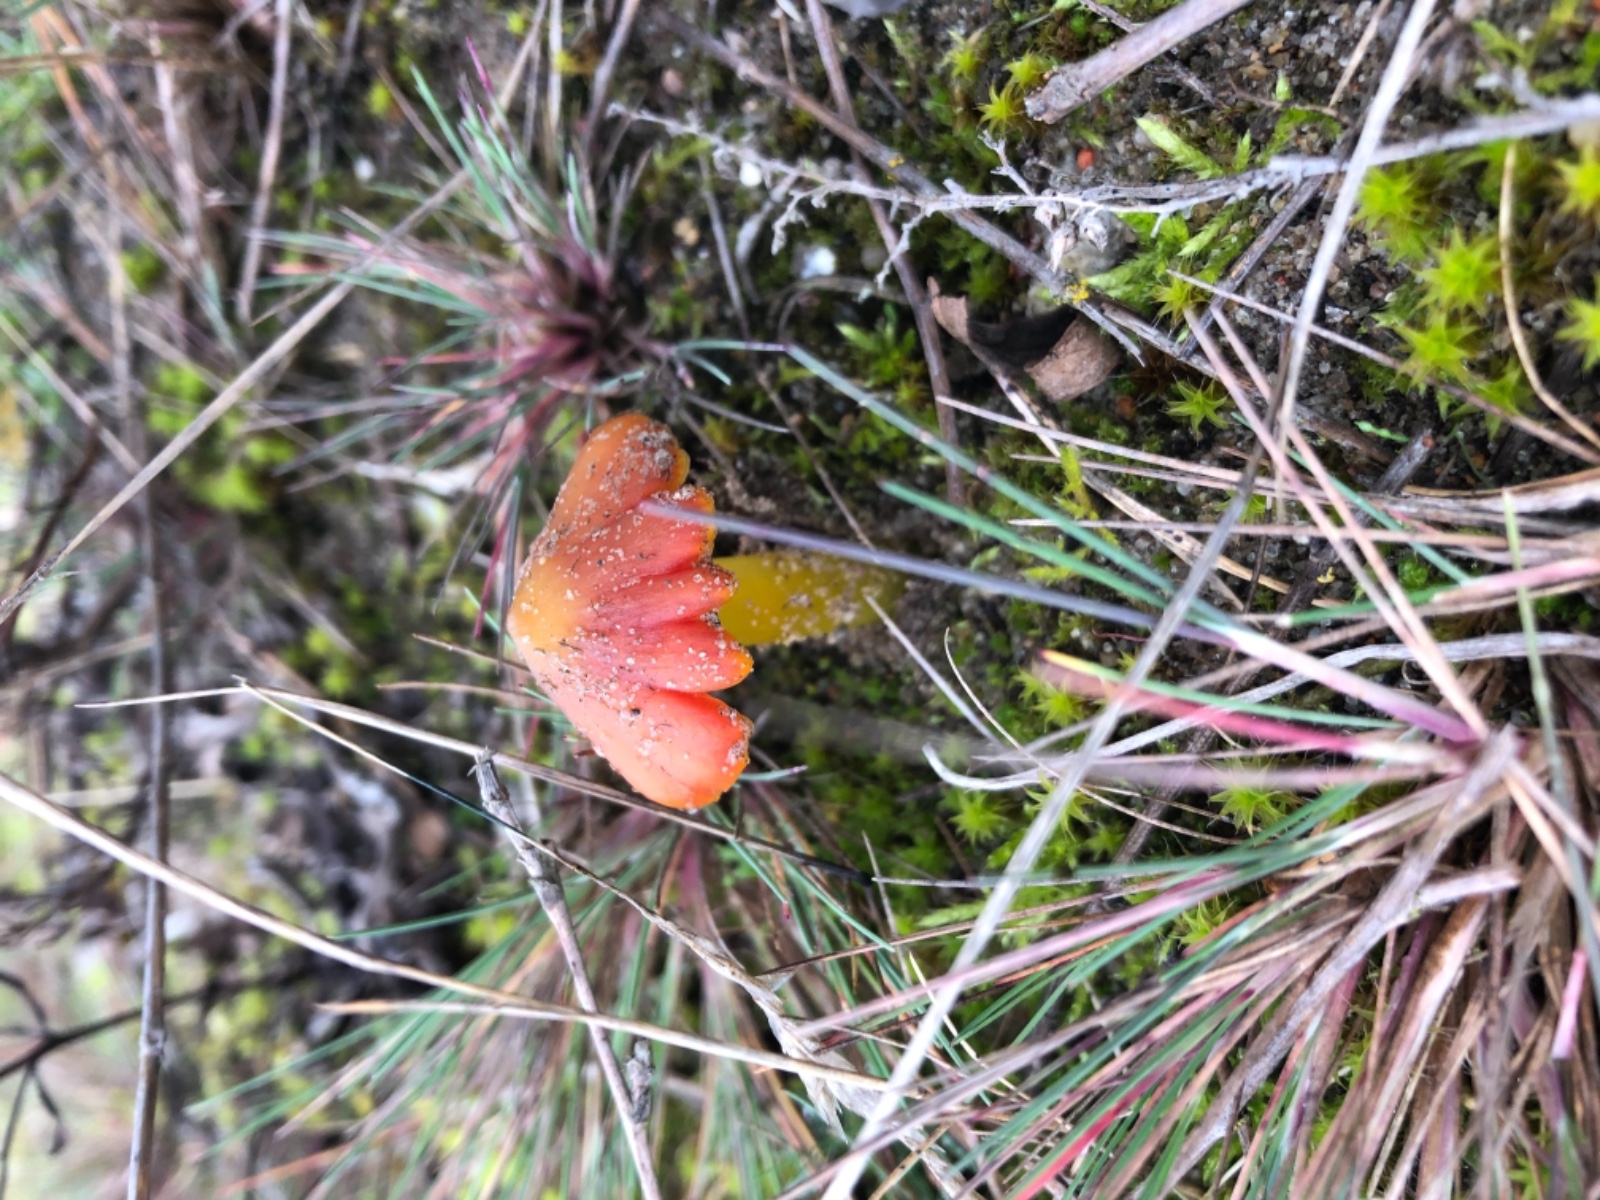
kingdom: Fungi
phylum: Basidiomycota
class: Agaricomycetes
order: Agaricales
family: Hygrophoraceae
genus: Hygrocybe
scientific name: Hygrocybe
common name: vokshat
